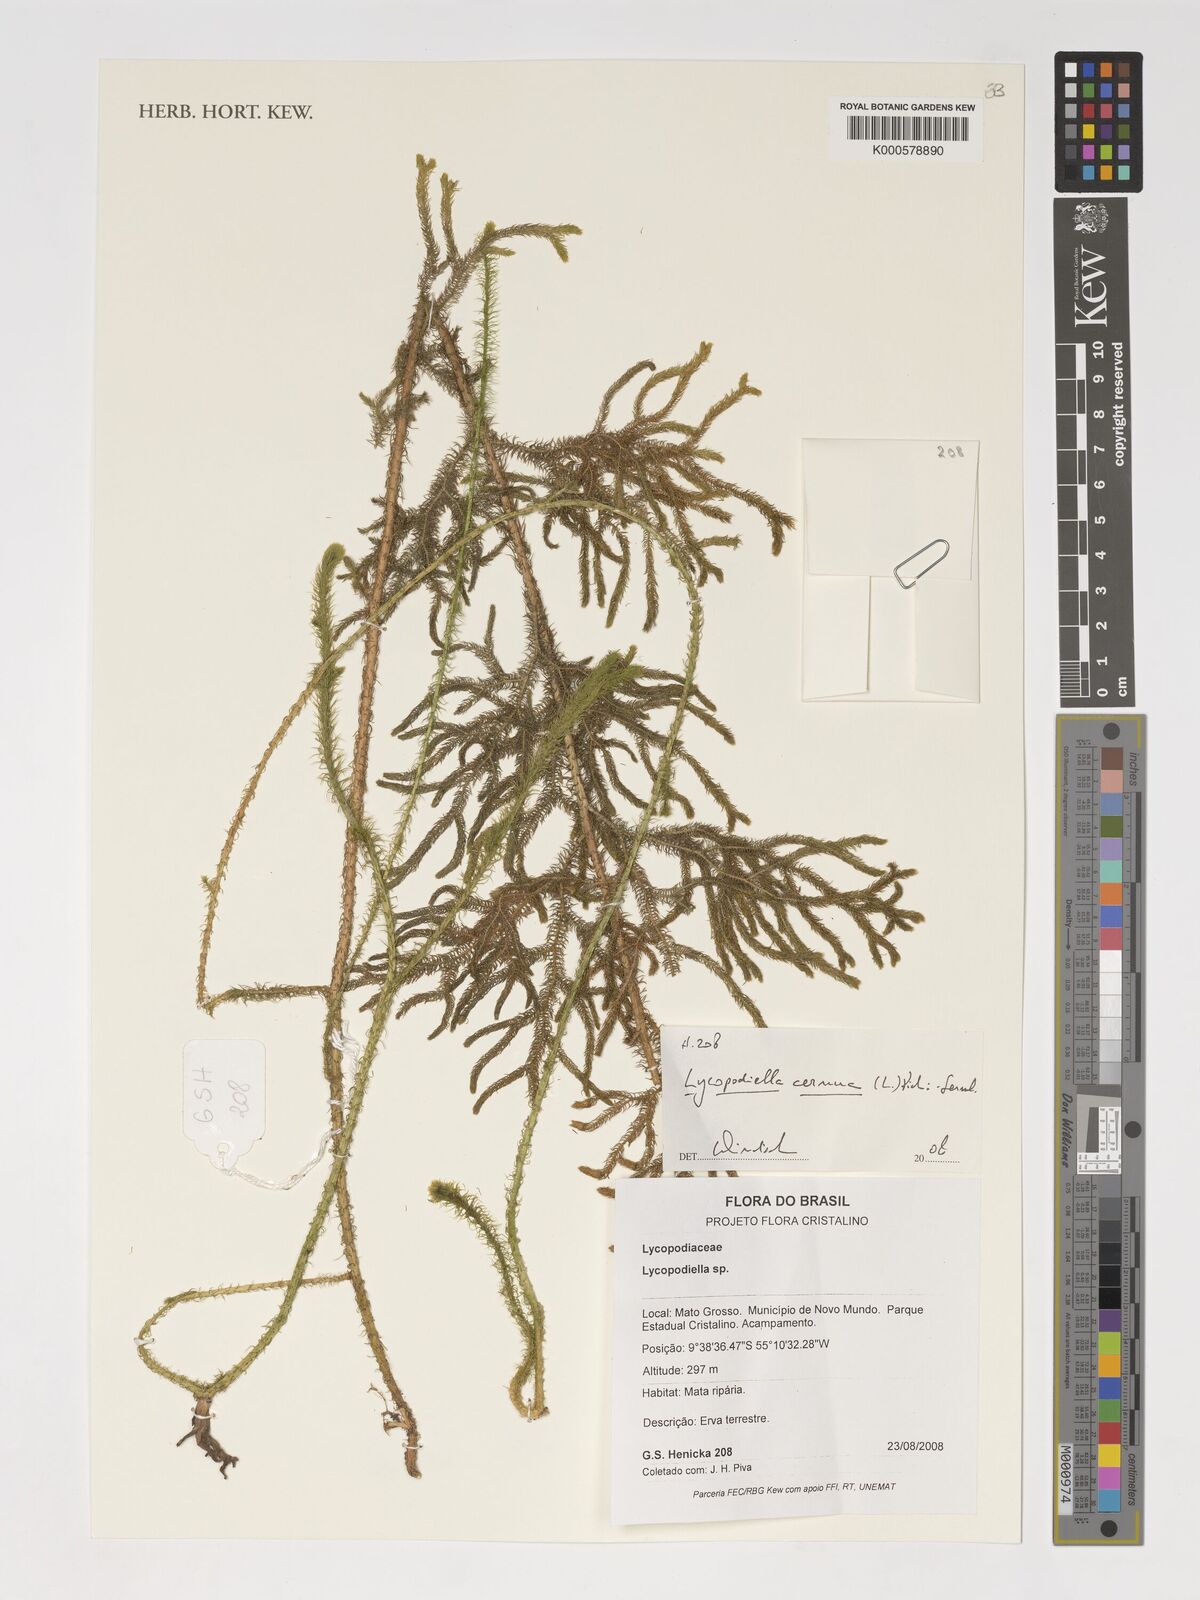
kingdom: Plantae
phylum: Tracheophyta
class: Lycopodiopsida
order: Lycopodiales
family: Lycopodiaceae
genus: Palhinhaea
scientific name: Palhinhaea cernua
